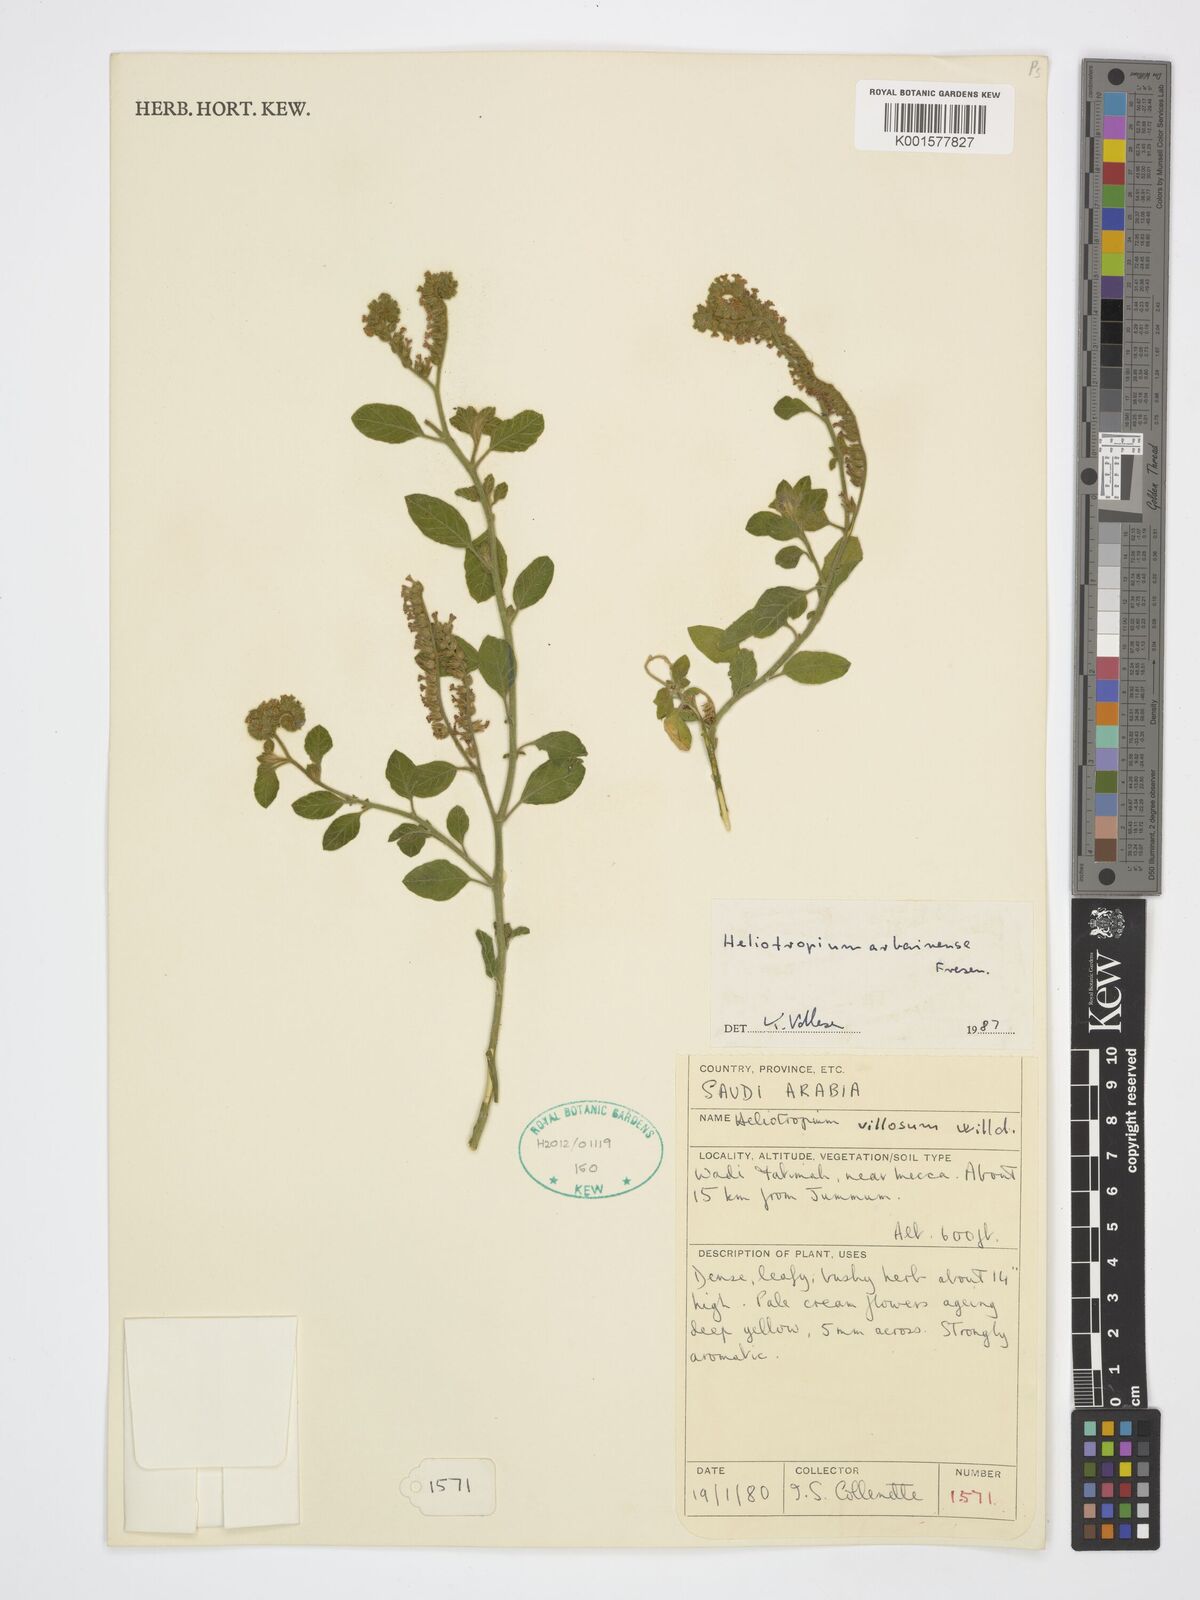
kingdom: Plantae
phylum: Tracheophyta
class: Magnoliopsida
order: Boraginales
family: Heliotropiaceae
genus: Heliotropium
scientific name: Heliotropium arbainense
